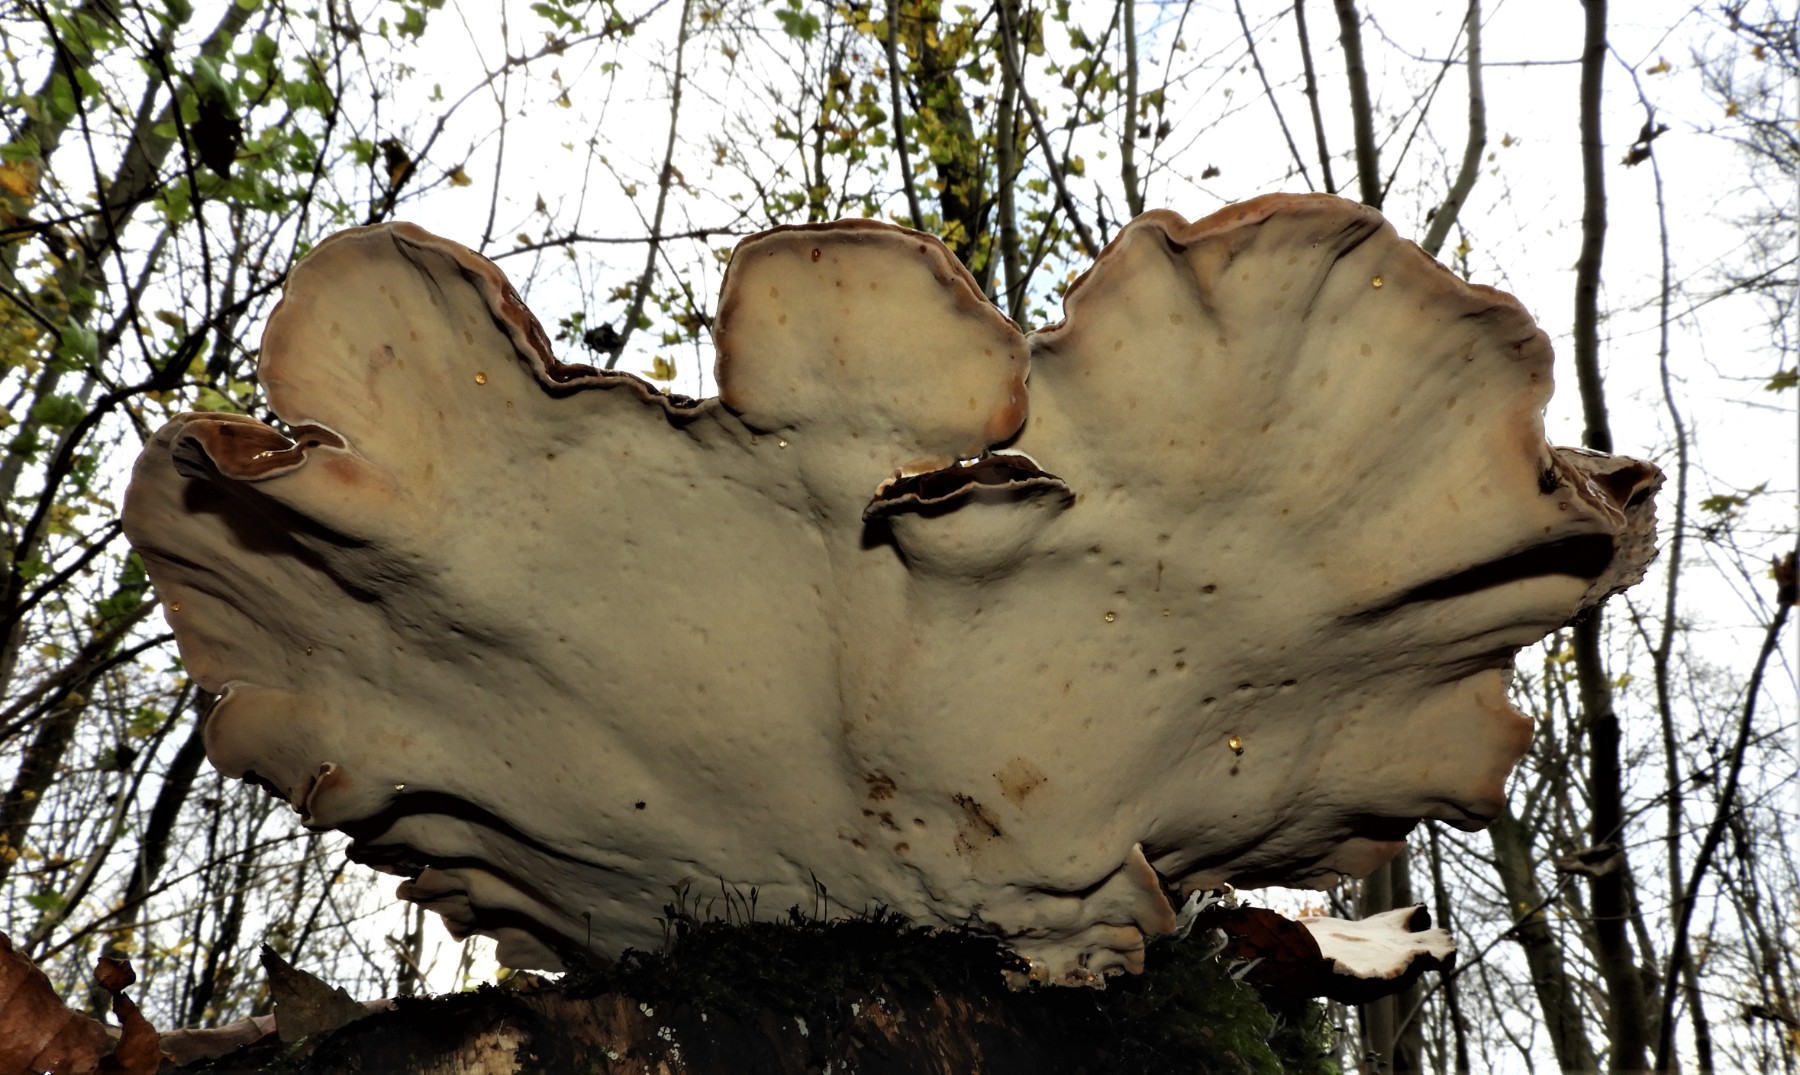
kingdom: Fungi
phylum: Basidiomycota
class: Agaricomycetes
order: Polyporales
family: Ischnodermataceae
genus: Ischnoderma
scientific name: Ischnoderma benzoinum
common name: gran-tjæreporesvamp
